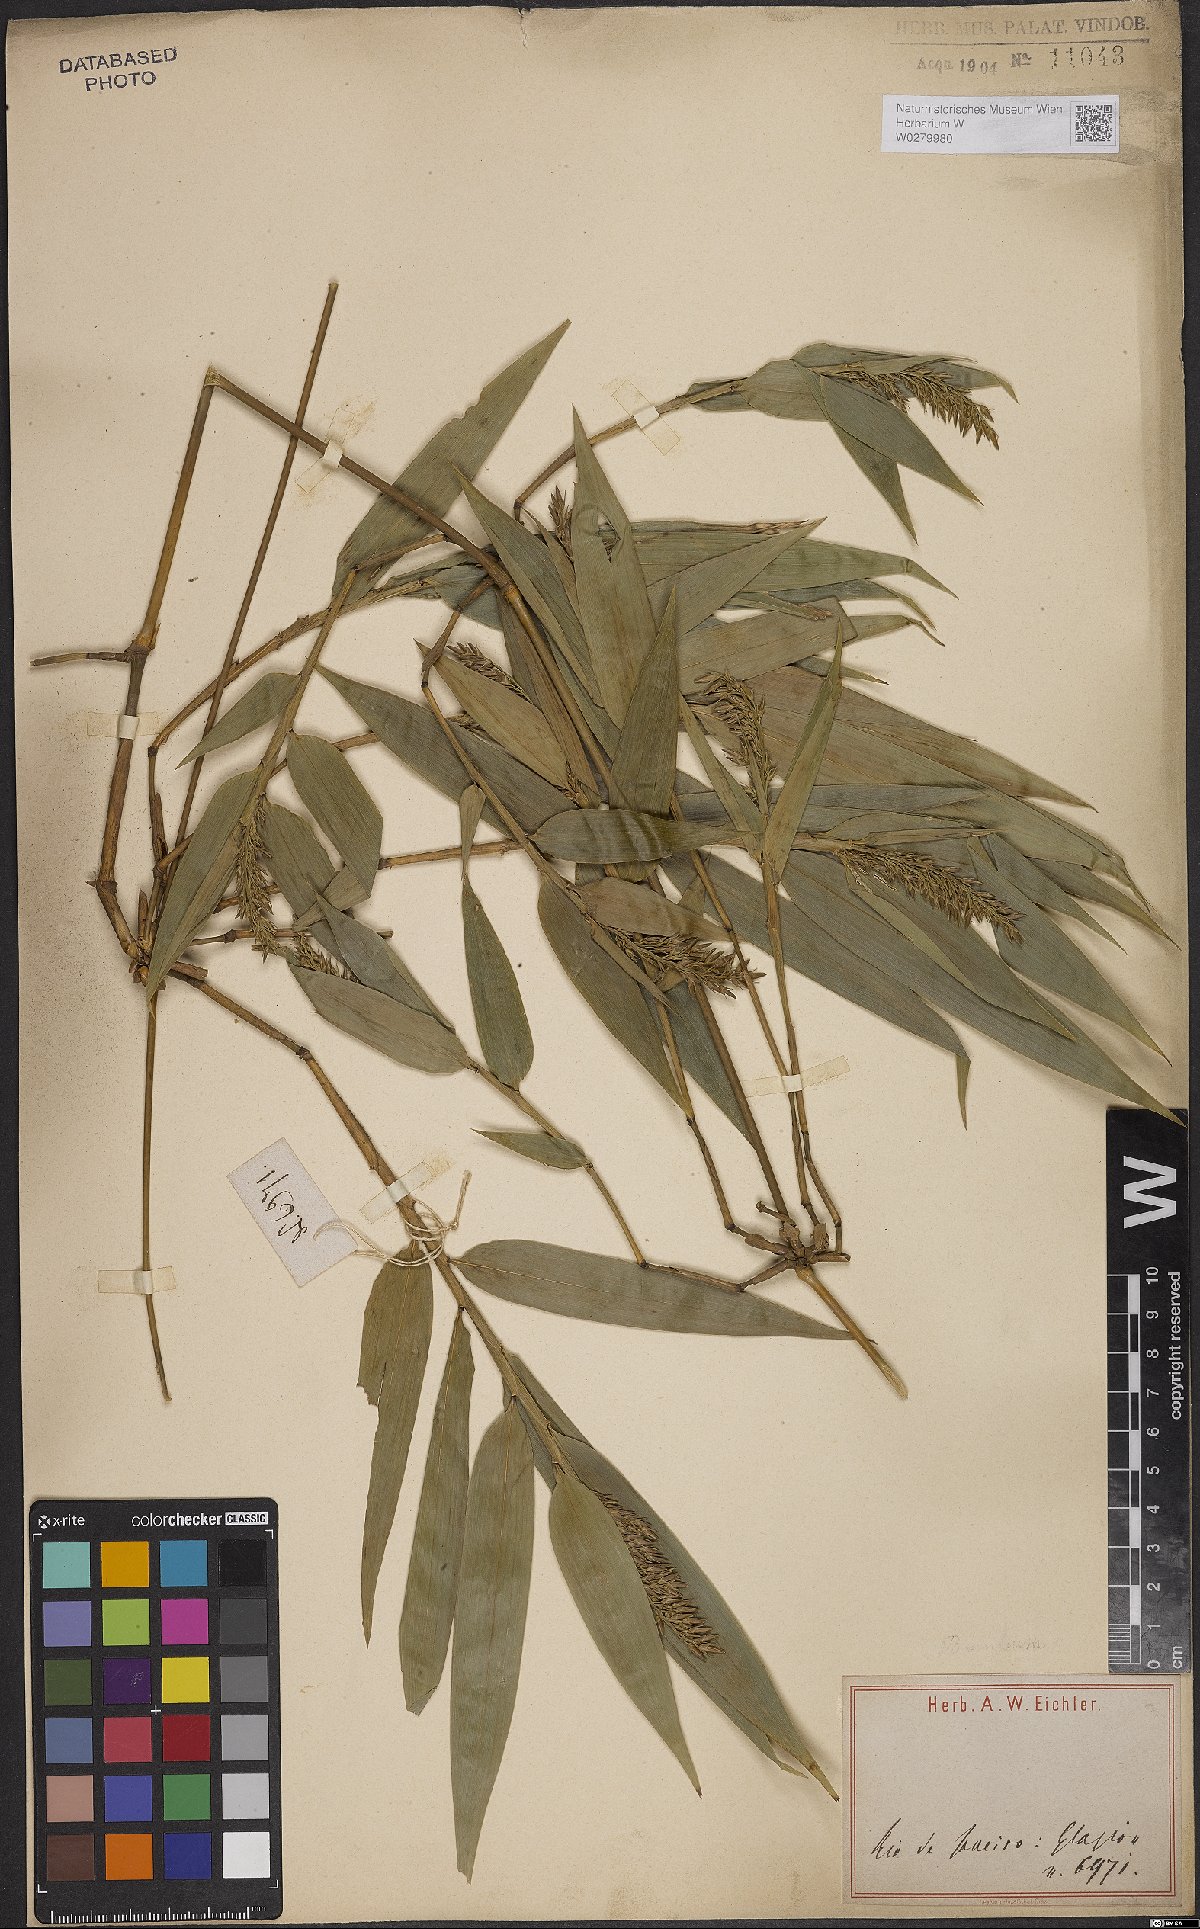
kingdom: Plantae
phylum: Tracheophyta
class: Liliopsida
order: Poales
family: Poaceae
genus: Bambusa
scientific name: Bambusa
